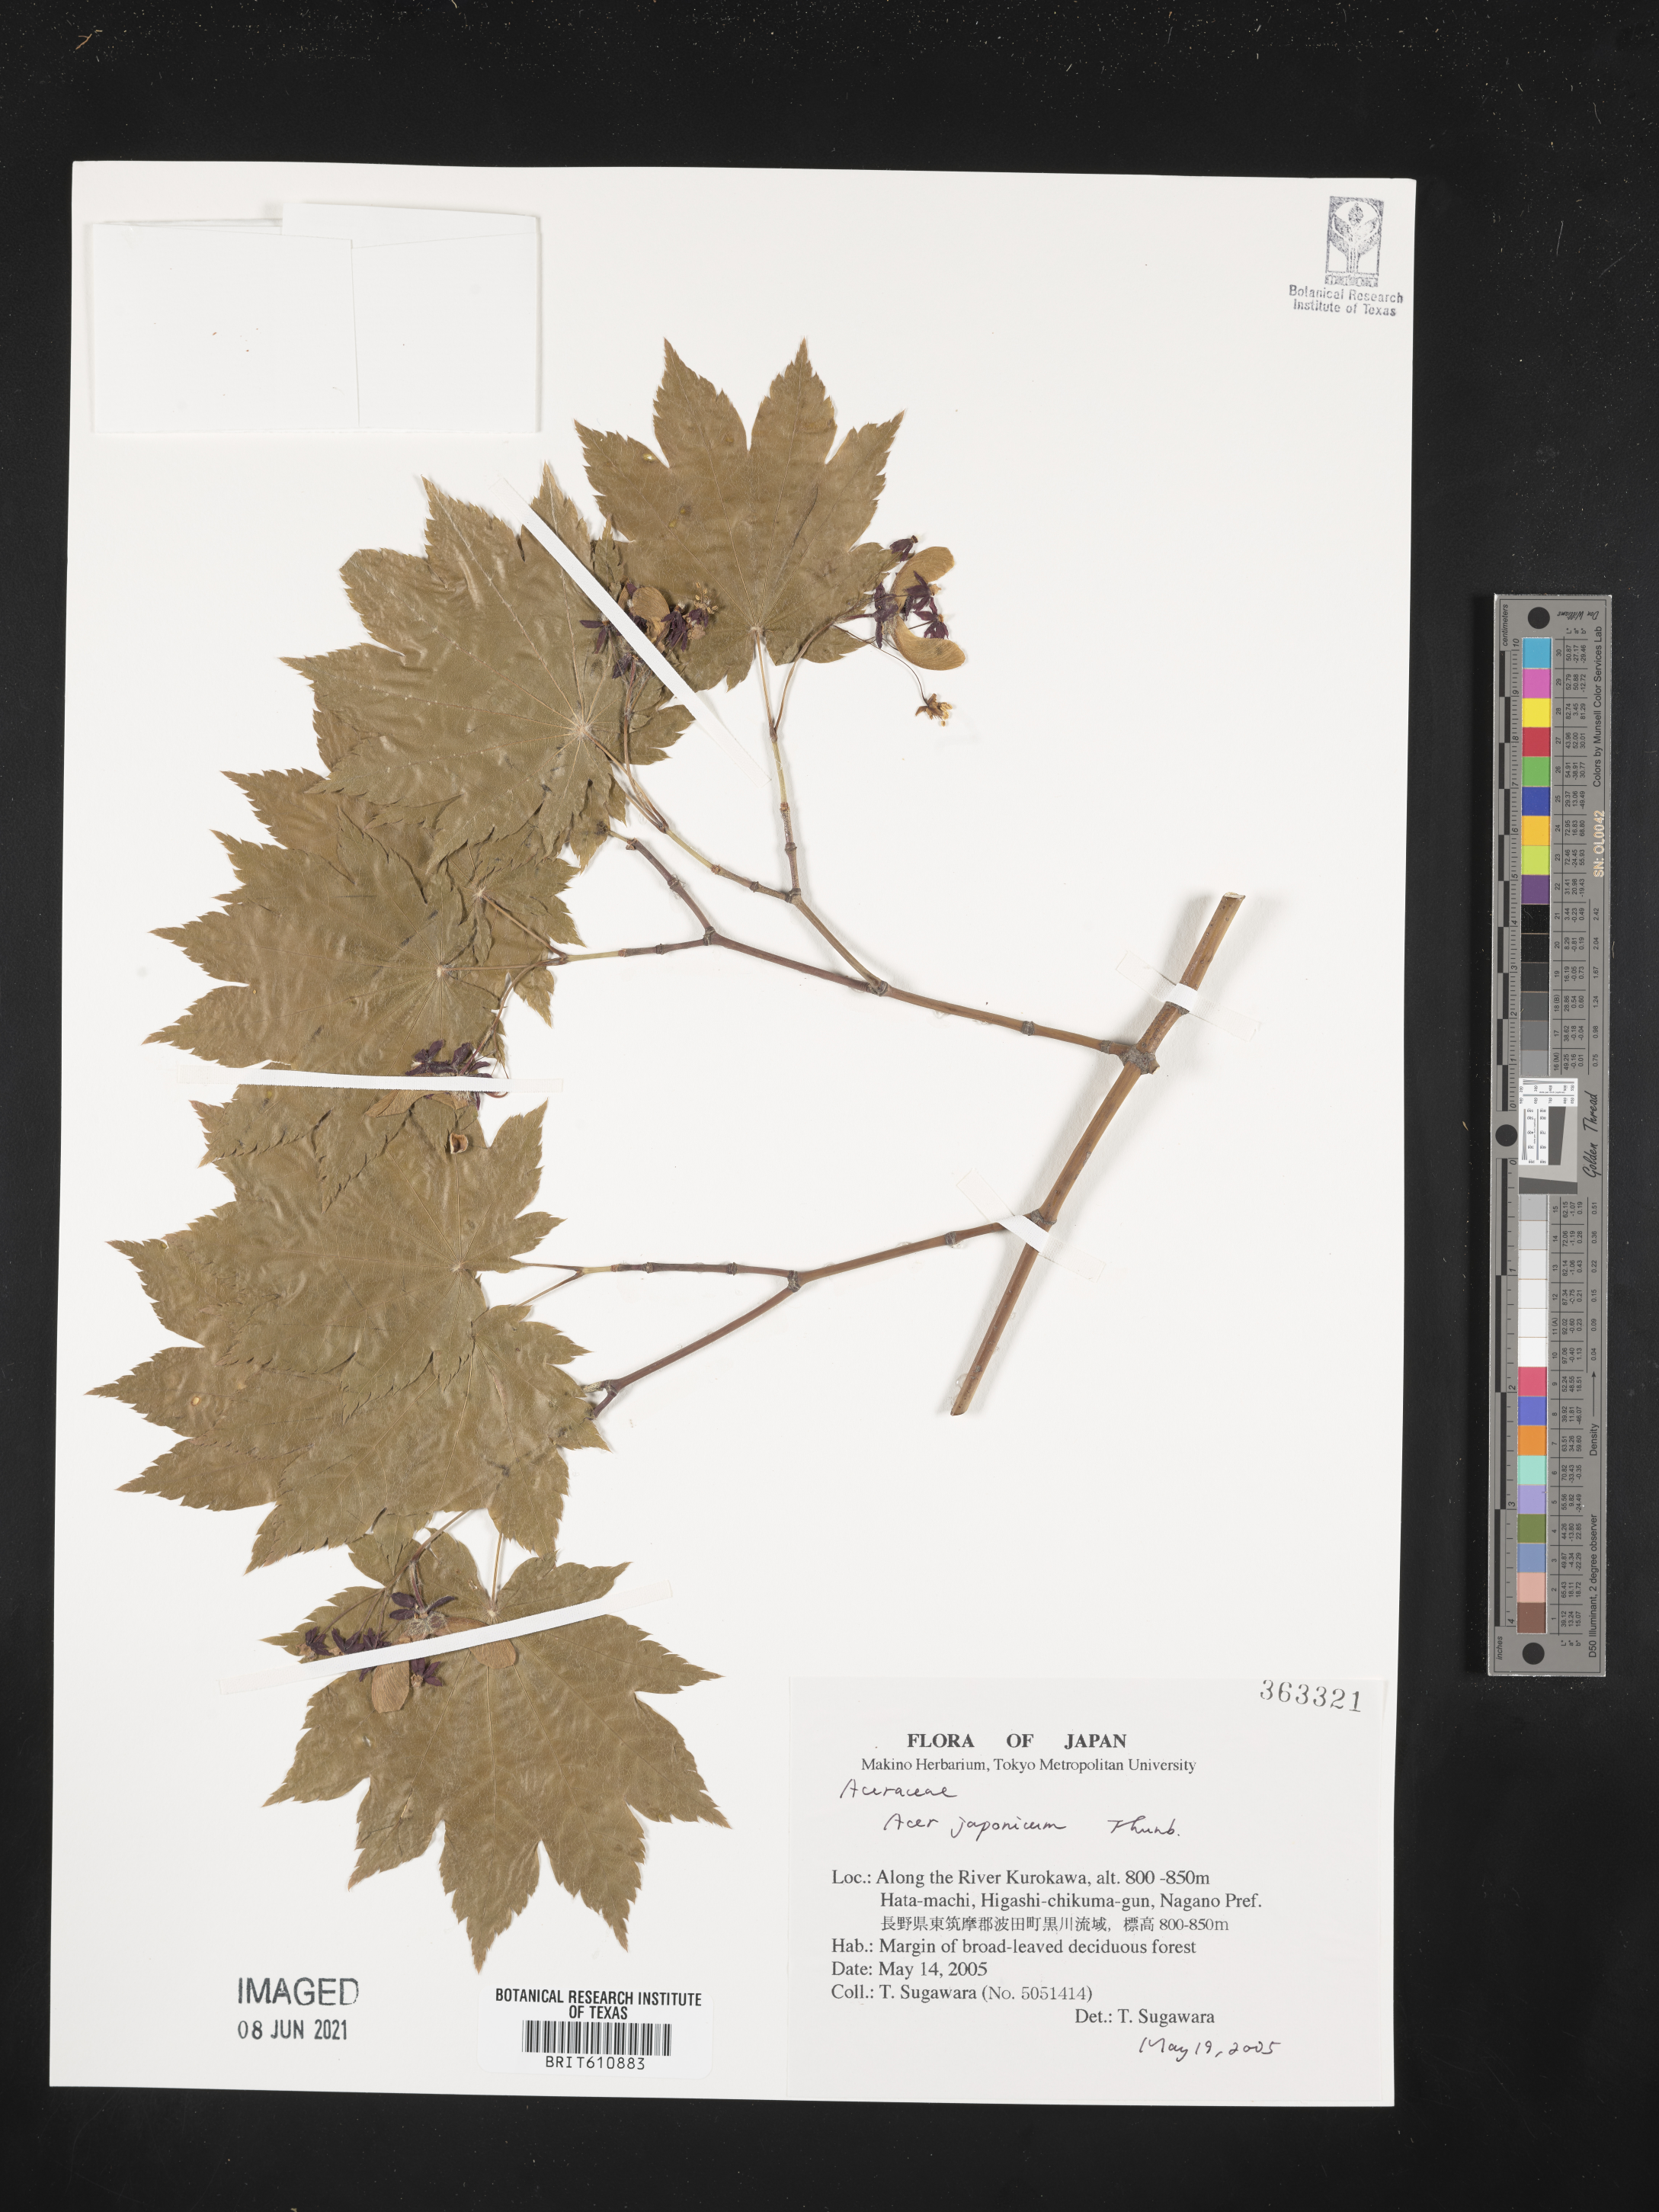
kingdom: Plantae
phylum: Tracheophyta
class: Magnoliopsida
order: Sapindales
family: Sapindaceae
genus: Acer
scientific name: Acer japonicum
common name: Amur maple
